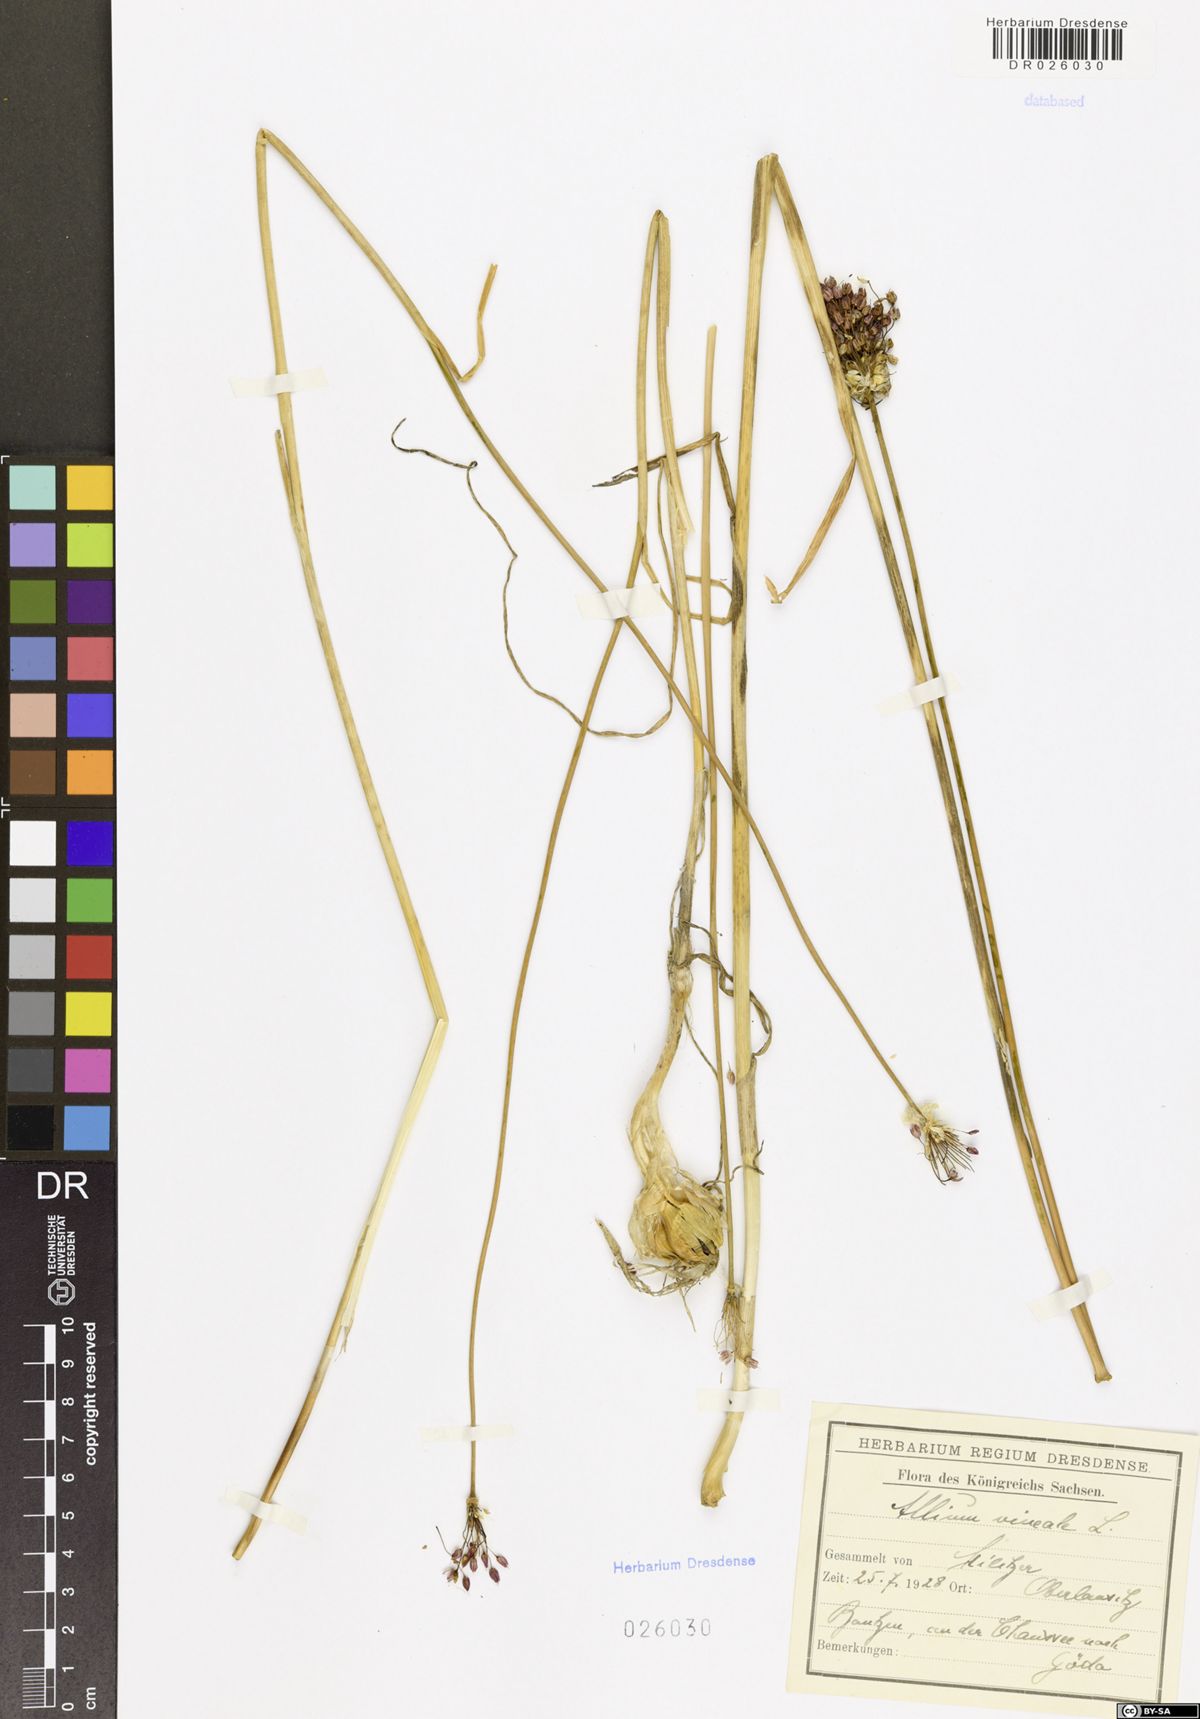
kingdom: Plantae
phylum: Tracheophyta
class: Liliopsida
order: Asparagales
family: Amaryllidaceae
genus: Allium
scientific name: Allium vineale
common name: Crow garlic
